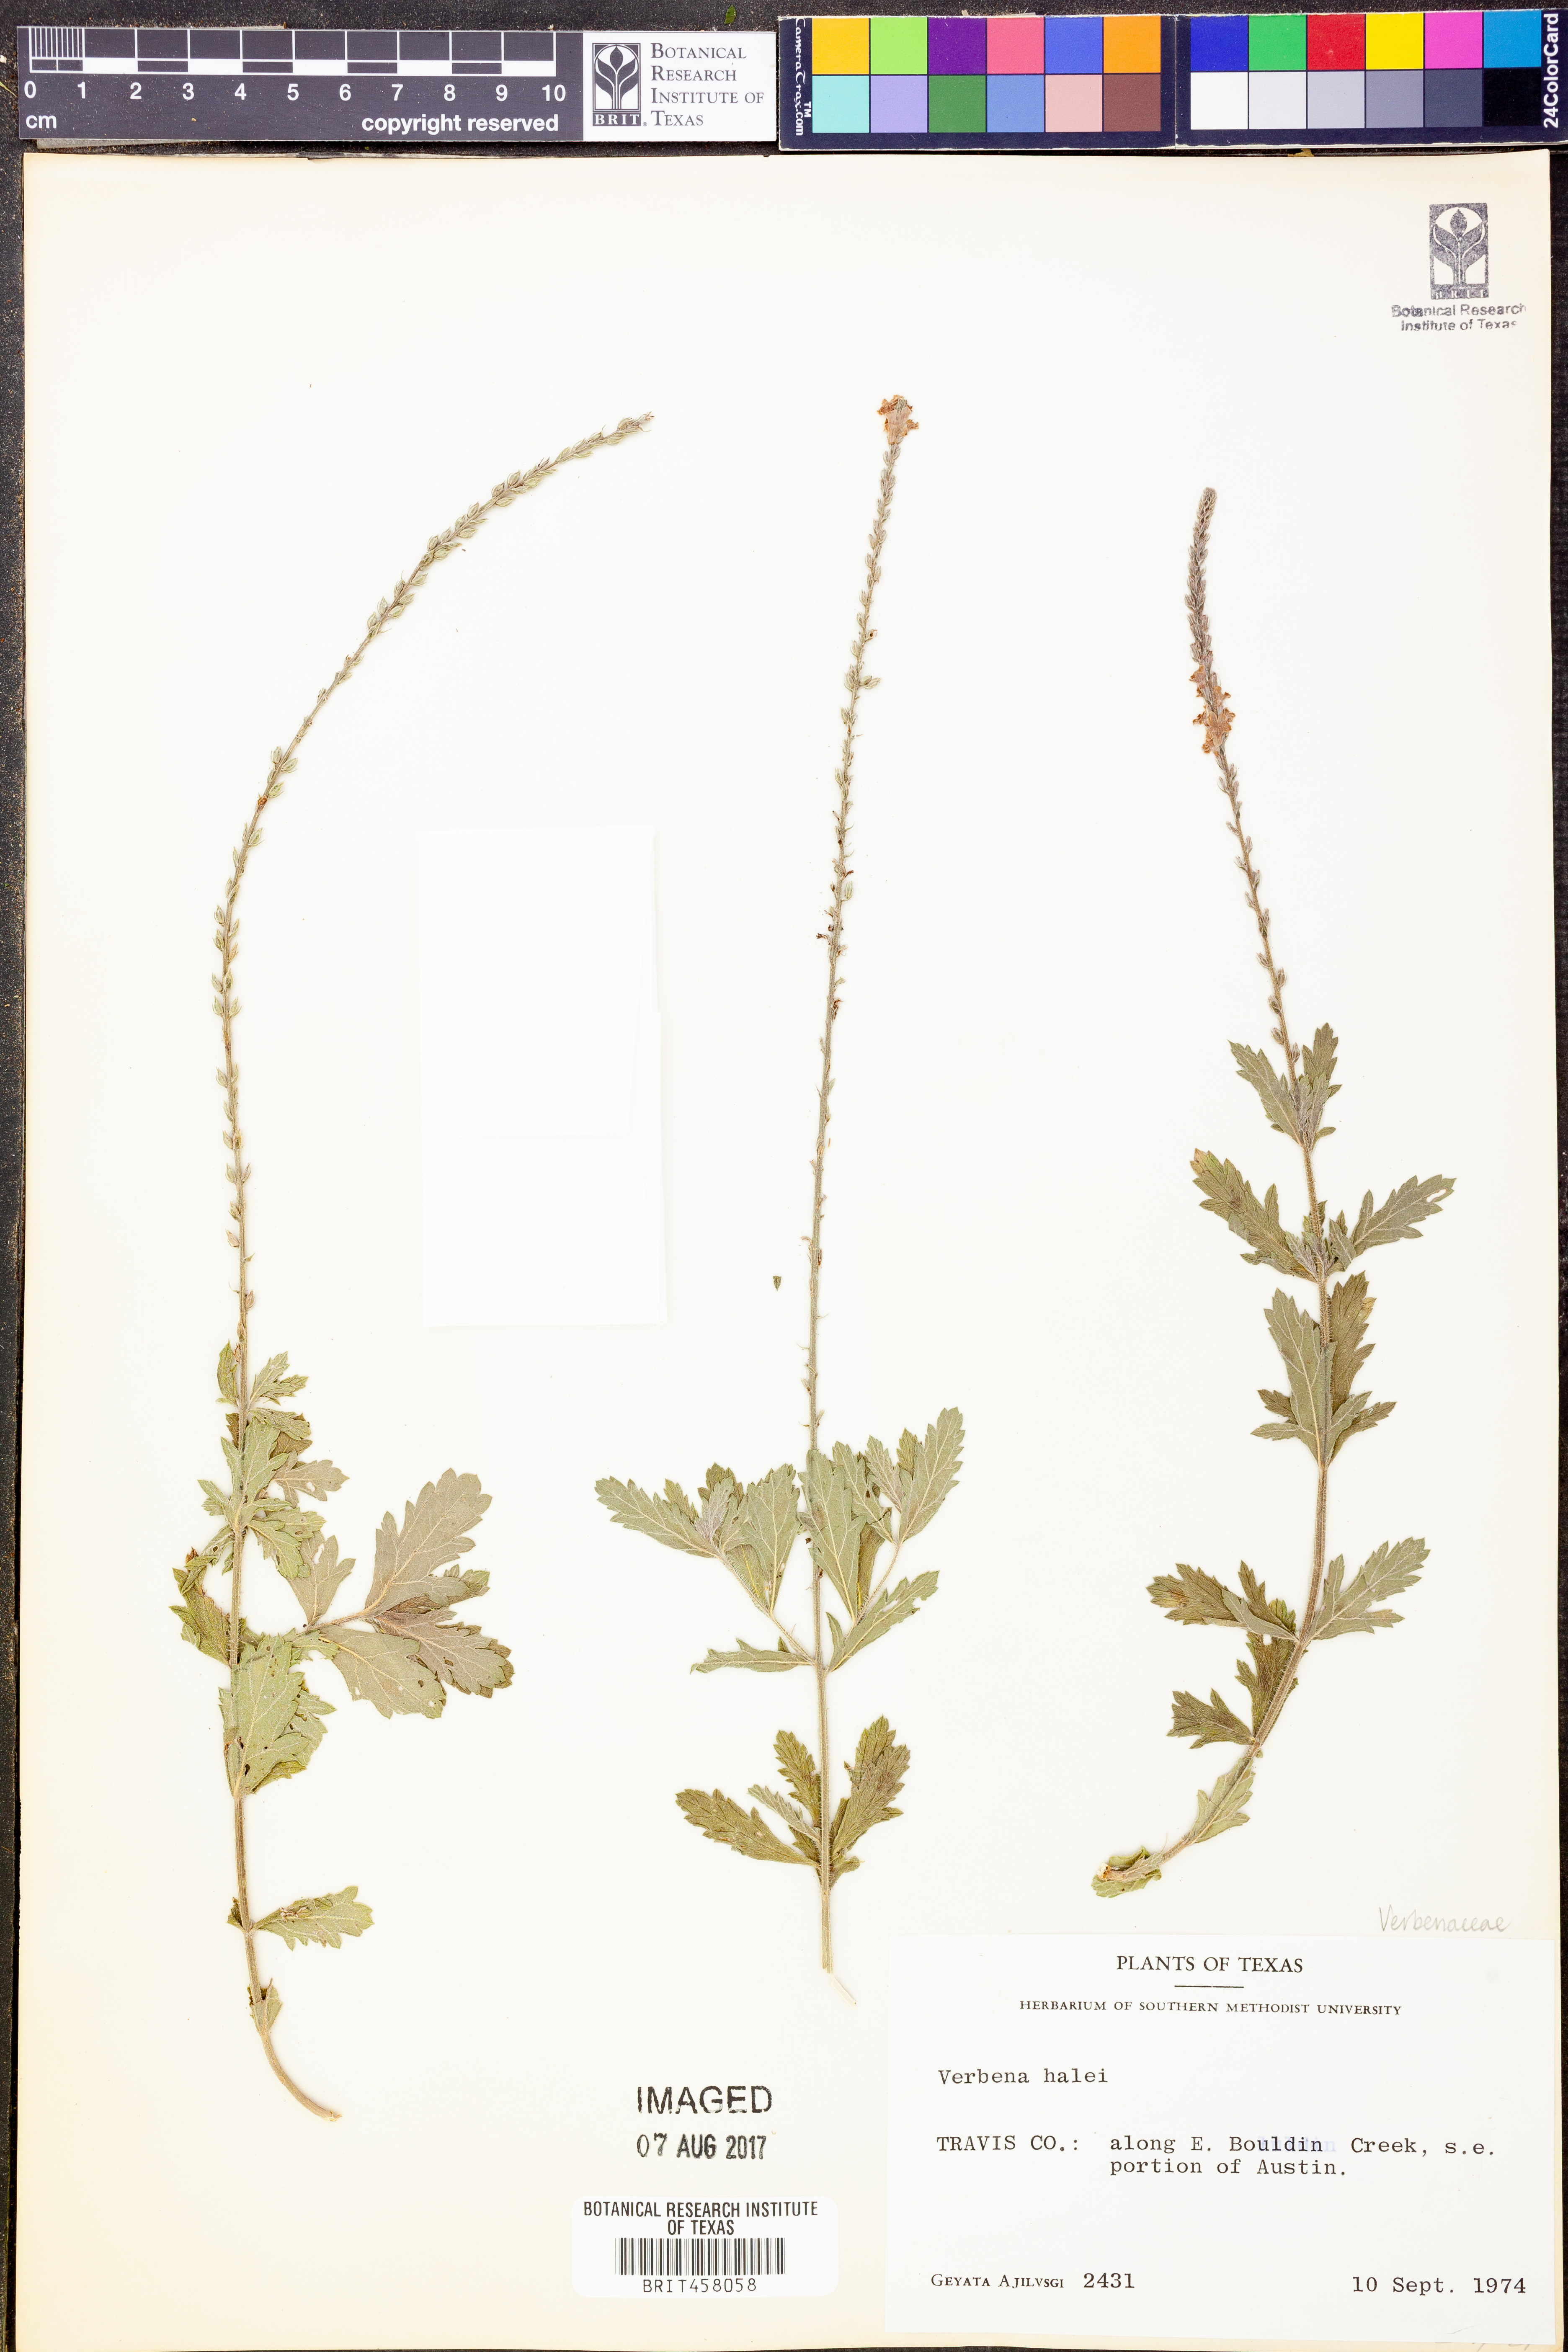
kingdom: Plantae
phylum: Tracheophyta
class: Magnoliopsida
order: Lamiales
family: Verbenaceae
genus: Verbena
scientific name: Verbena halei
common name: Texas vervain
